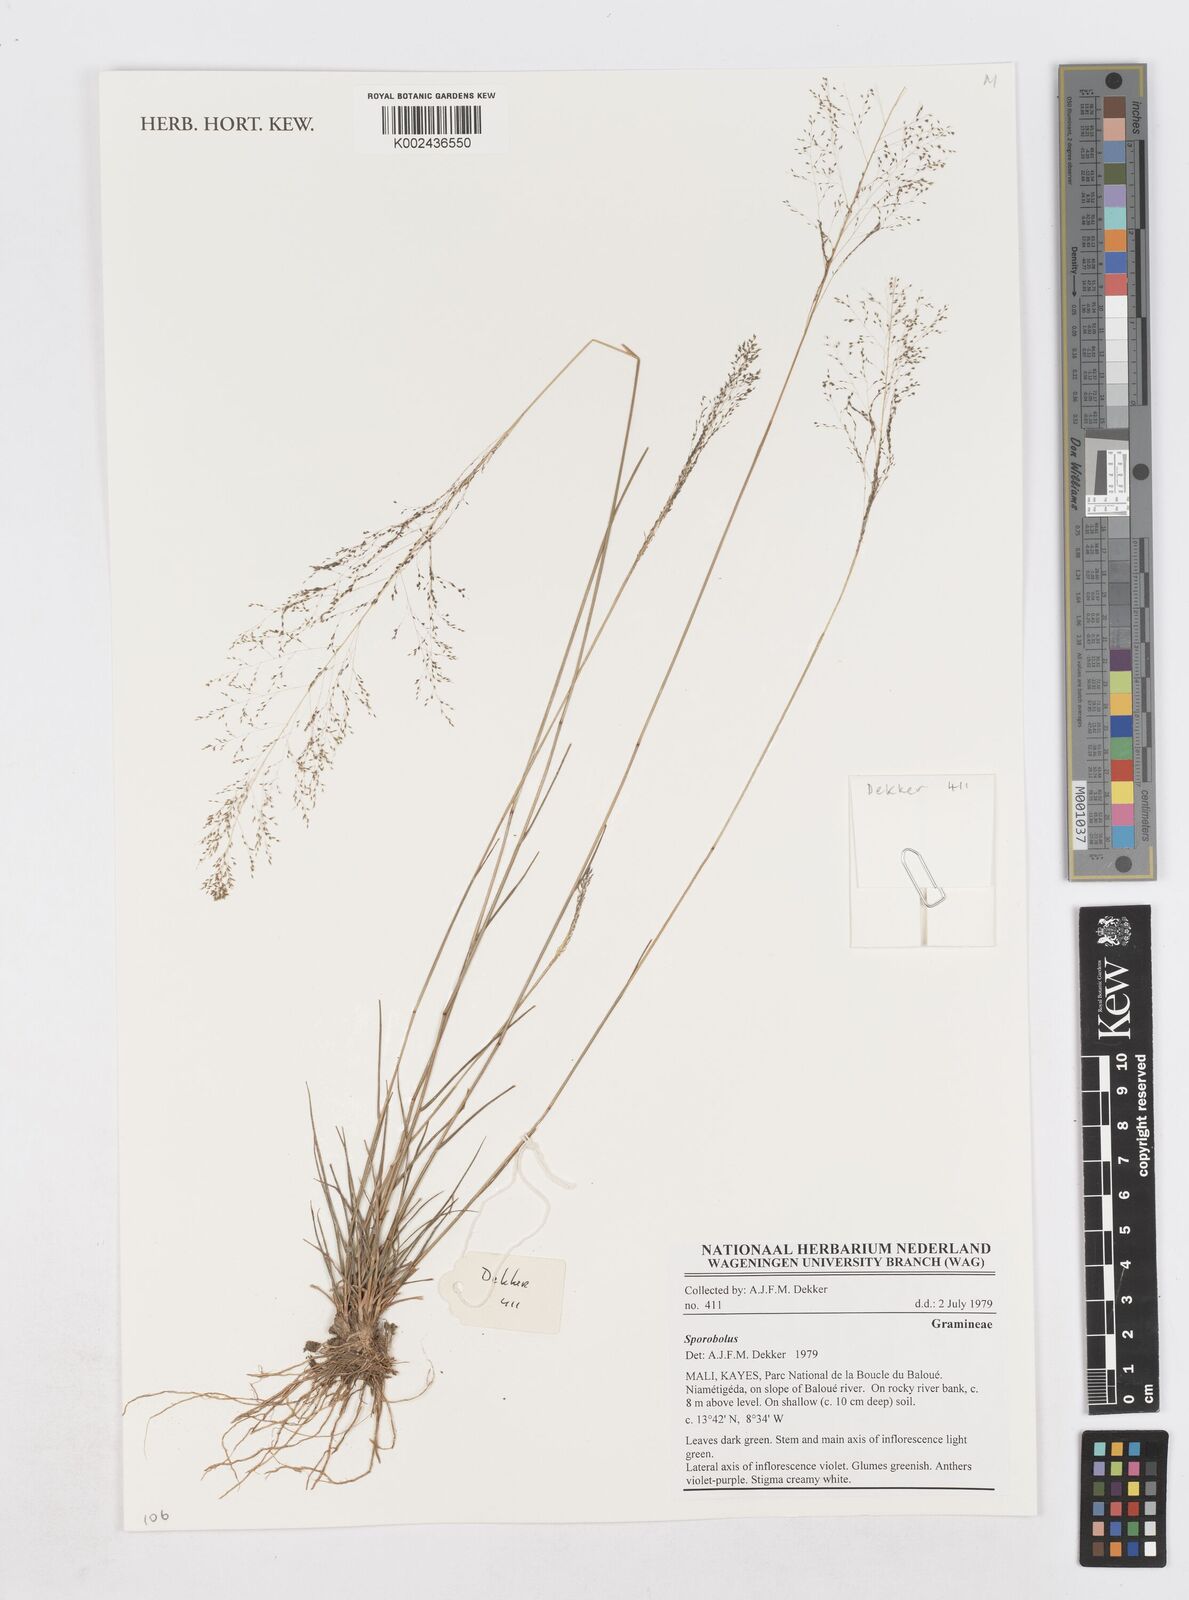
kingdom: Plantae
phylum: Tracheophyta
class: Liliopsida
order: Poales
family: Poaceae
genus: Sporobolus
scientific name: Sporobolus
